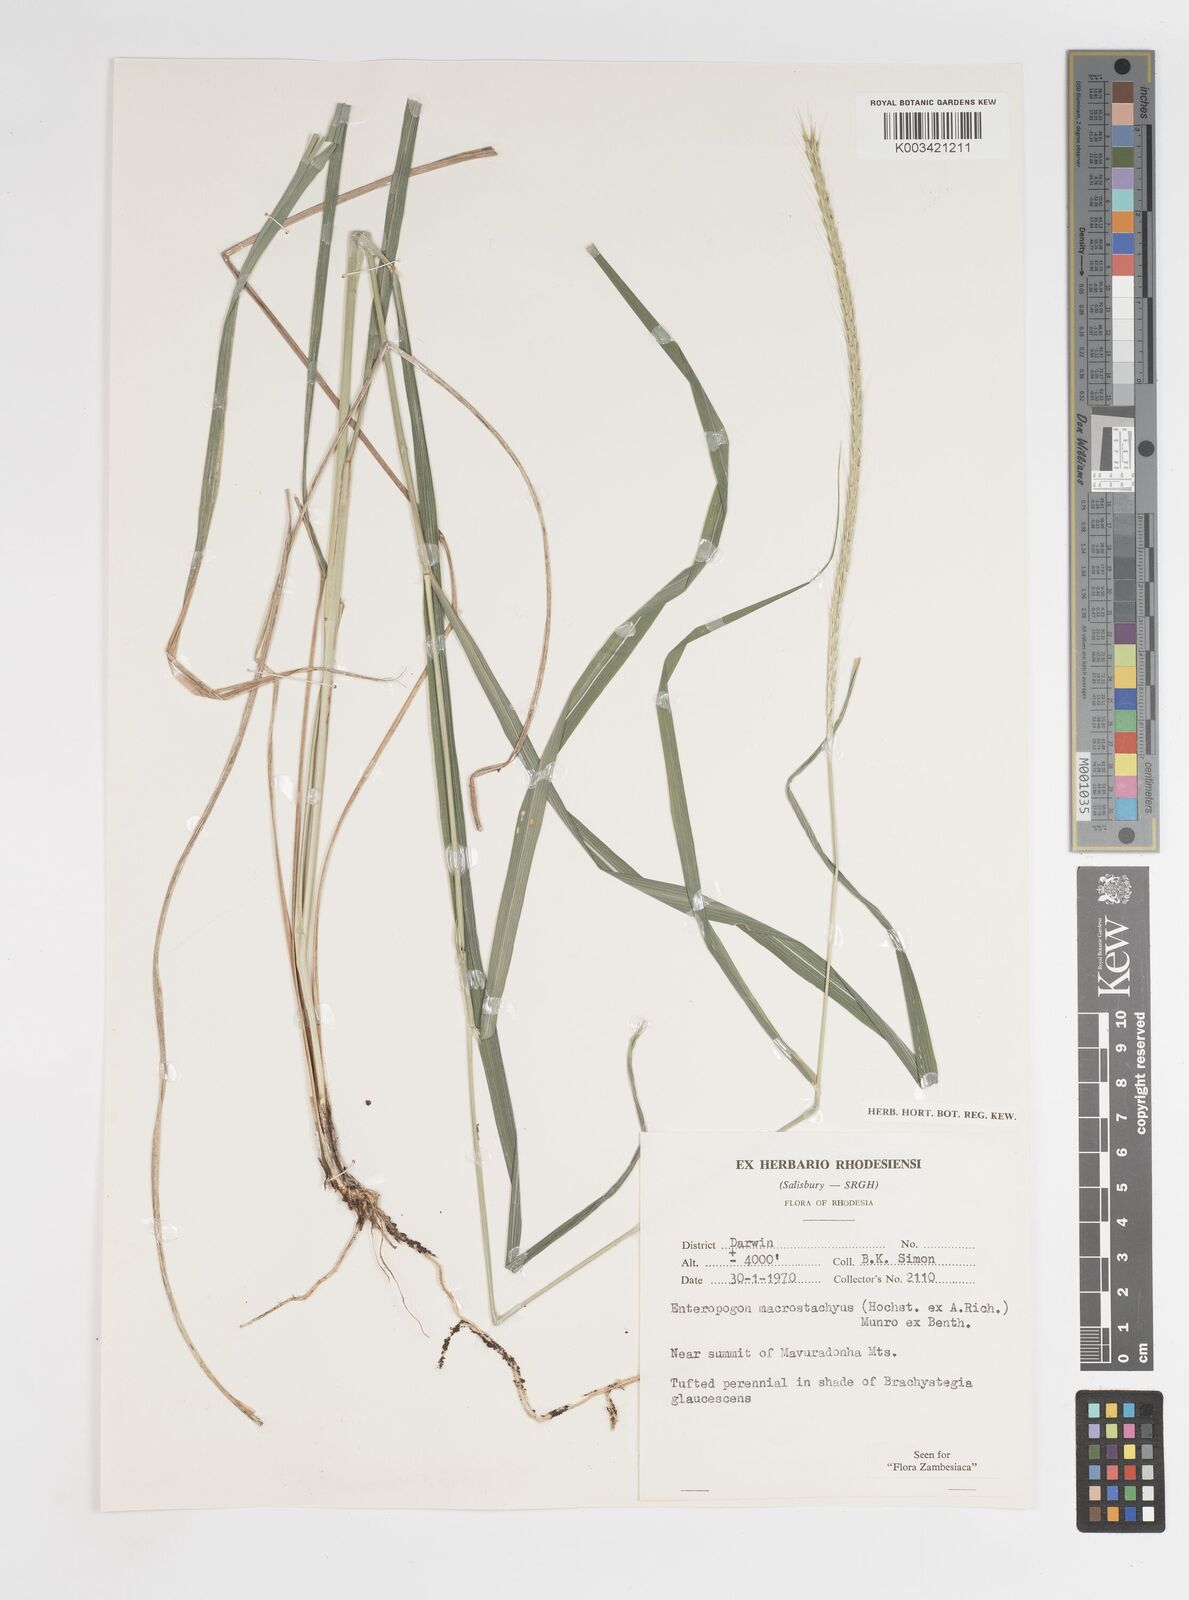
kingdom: Plantae
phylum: Tracheophyta
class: Liliopsida
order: Poales
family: Poaceae
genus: Enteropogon
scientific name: Enteropogon macrostachyus
